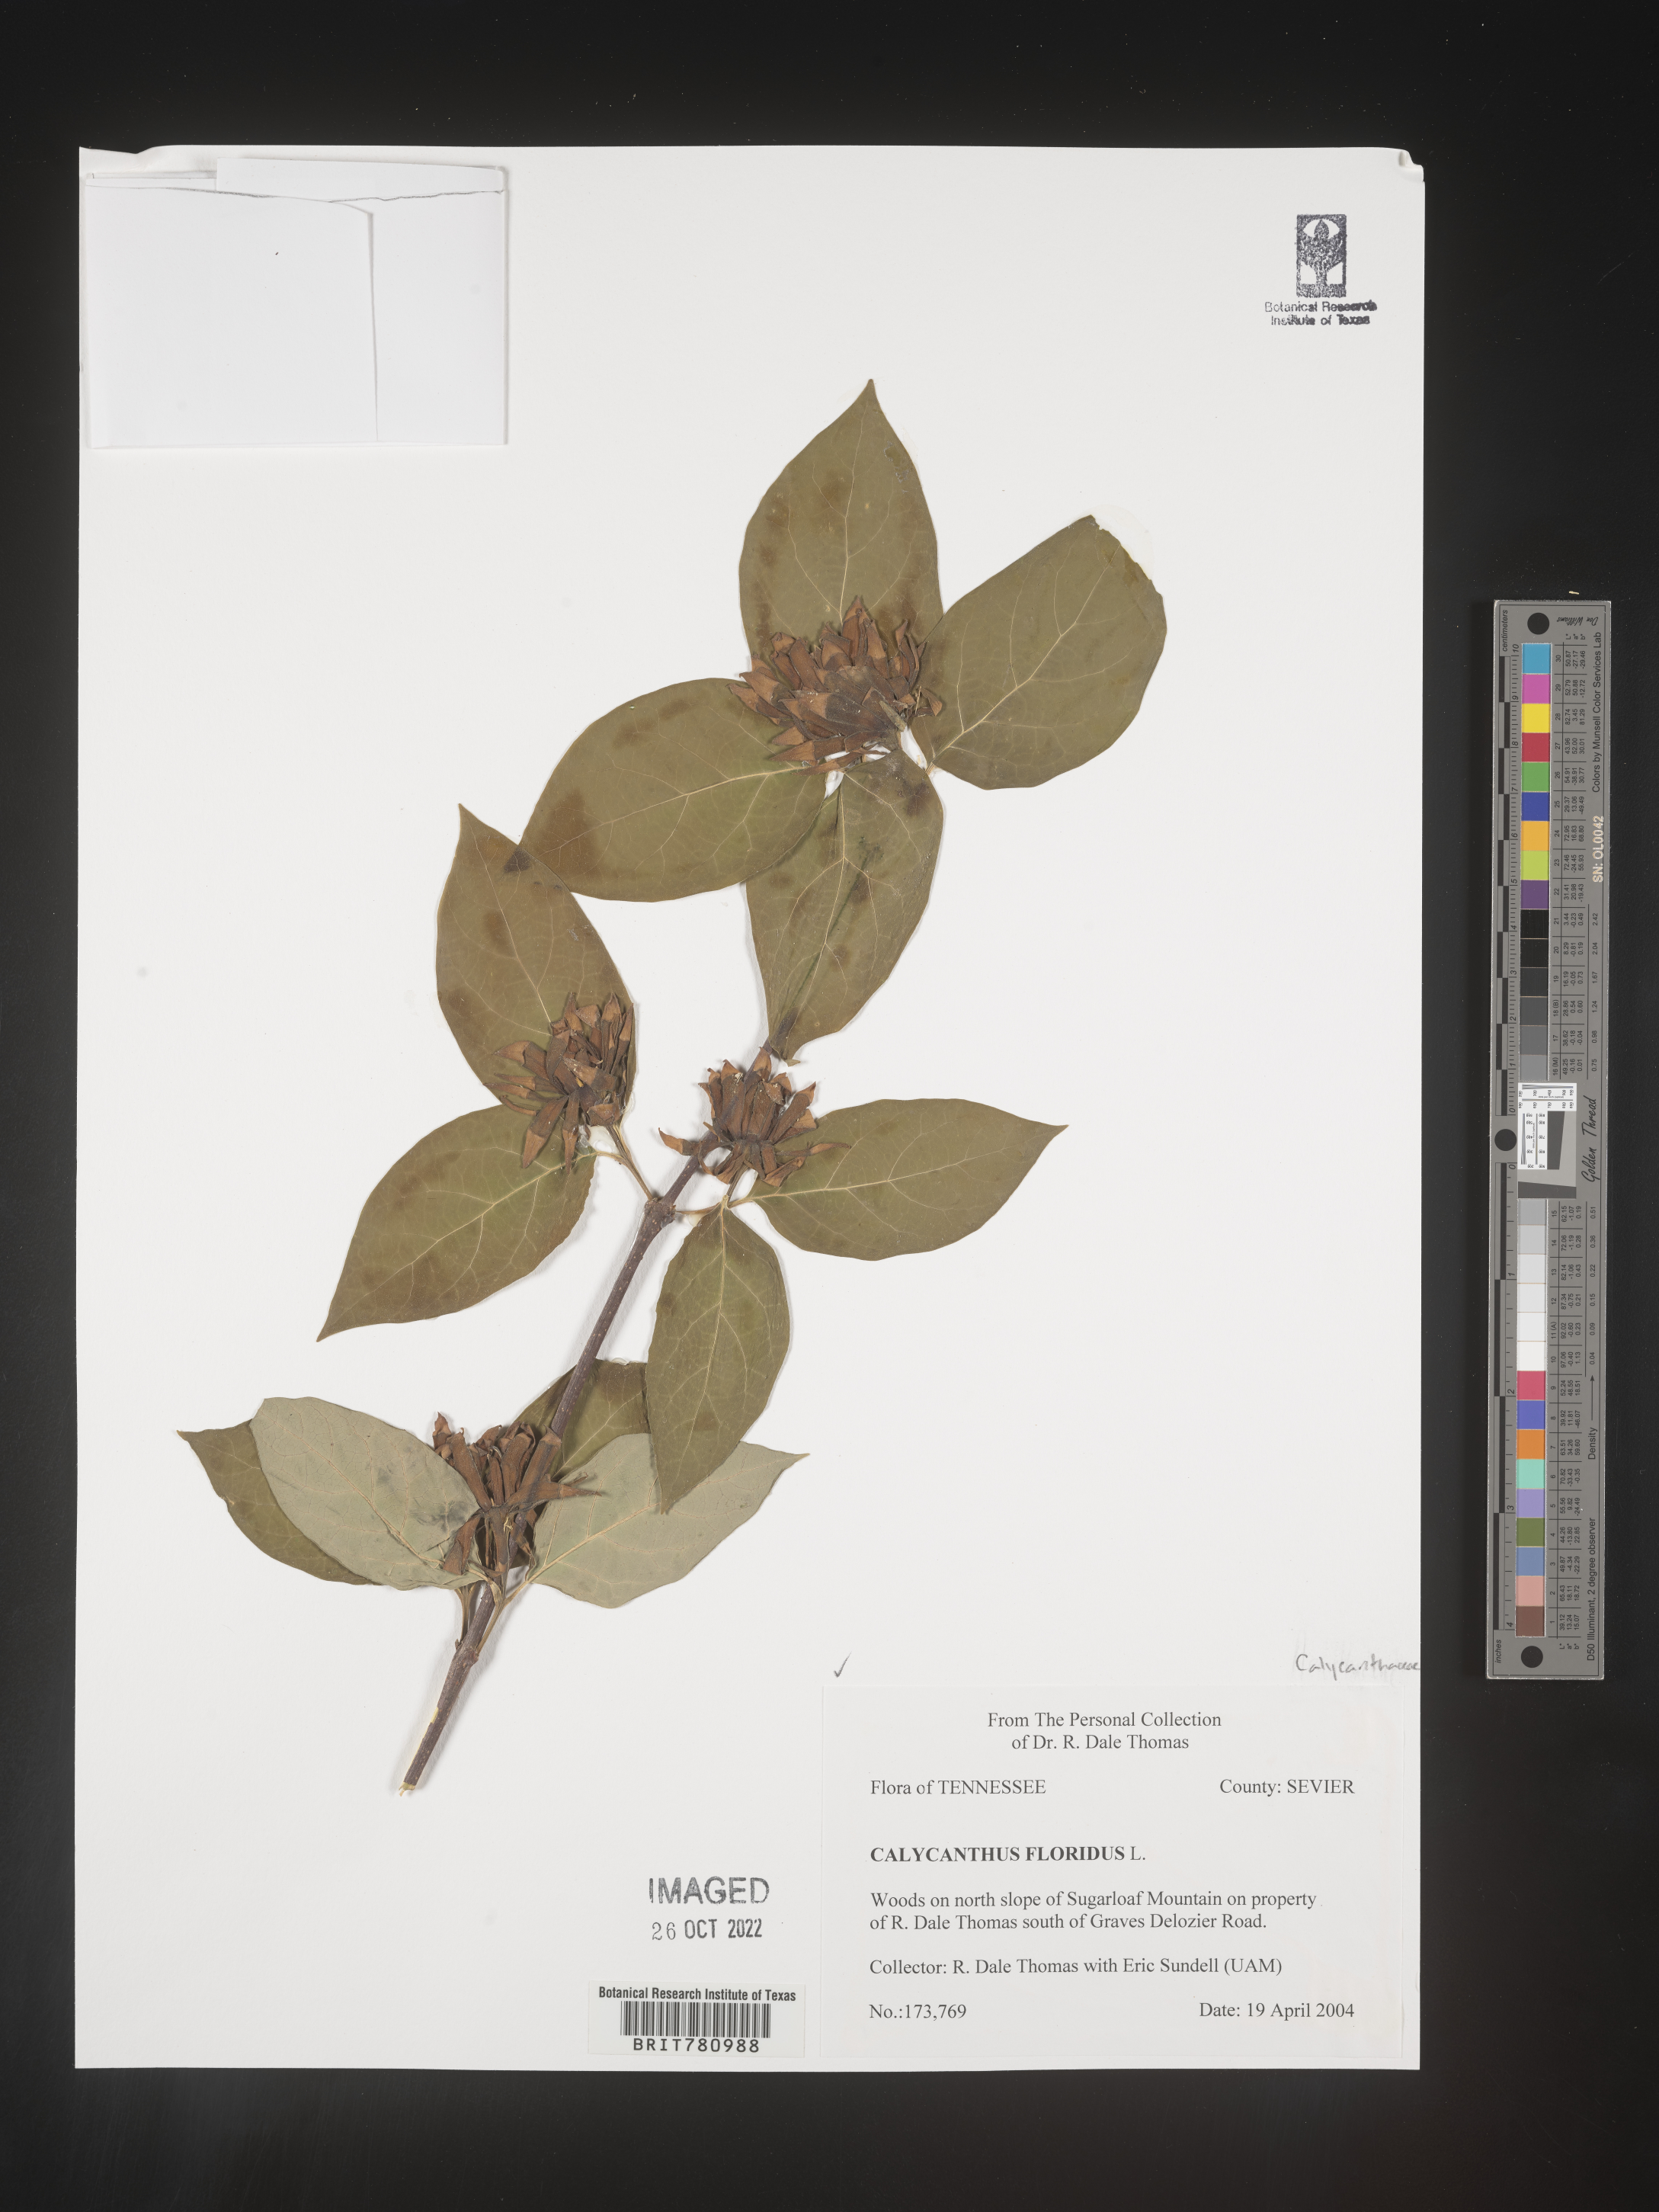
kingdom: Plantae
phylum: Tracheophyta
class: Magnoliopsida
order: Laurales
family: Calycanthaceae
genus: Calycanthus
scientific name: Calycanthus
